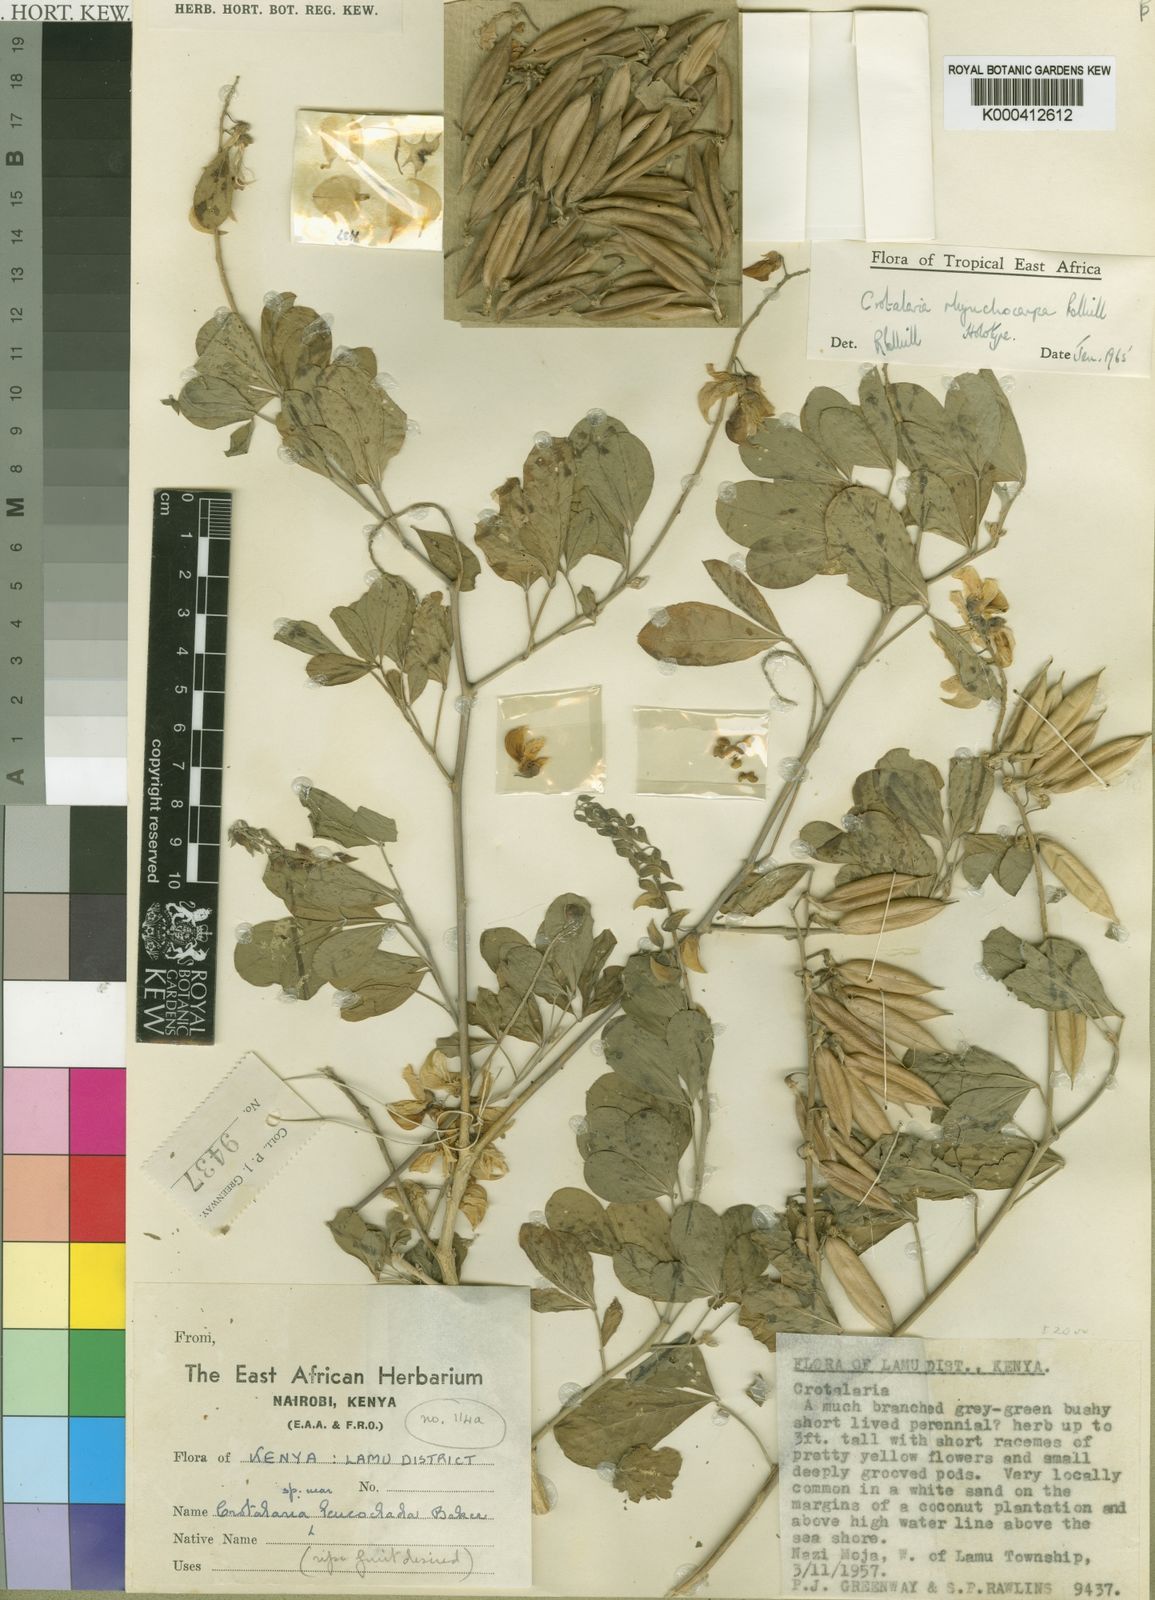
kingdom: Plantae
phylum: Tracheophyta
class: Magnoliopsida
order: Fabales
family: Fabaceae
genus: Crotalaria
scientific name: Crotalaria rhynchocarpa
